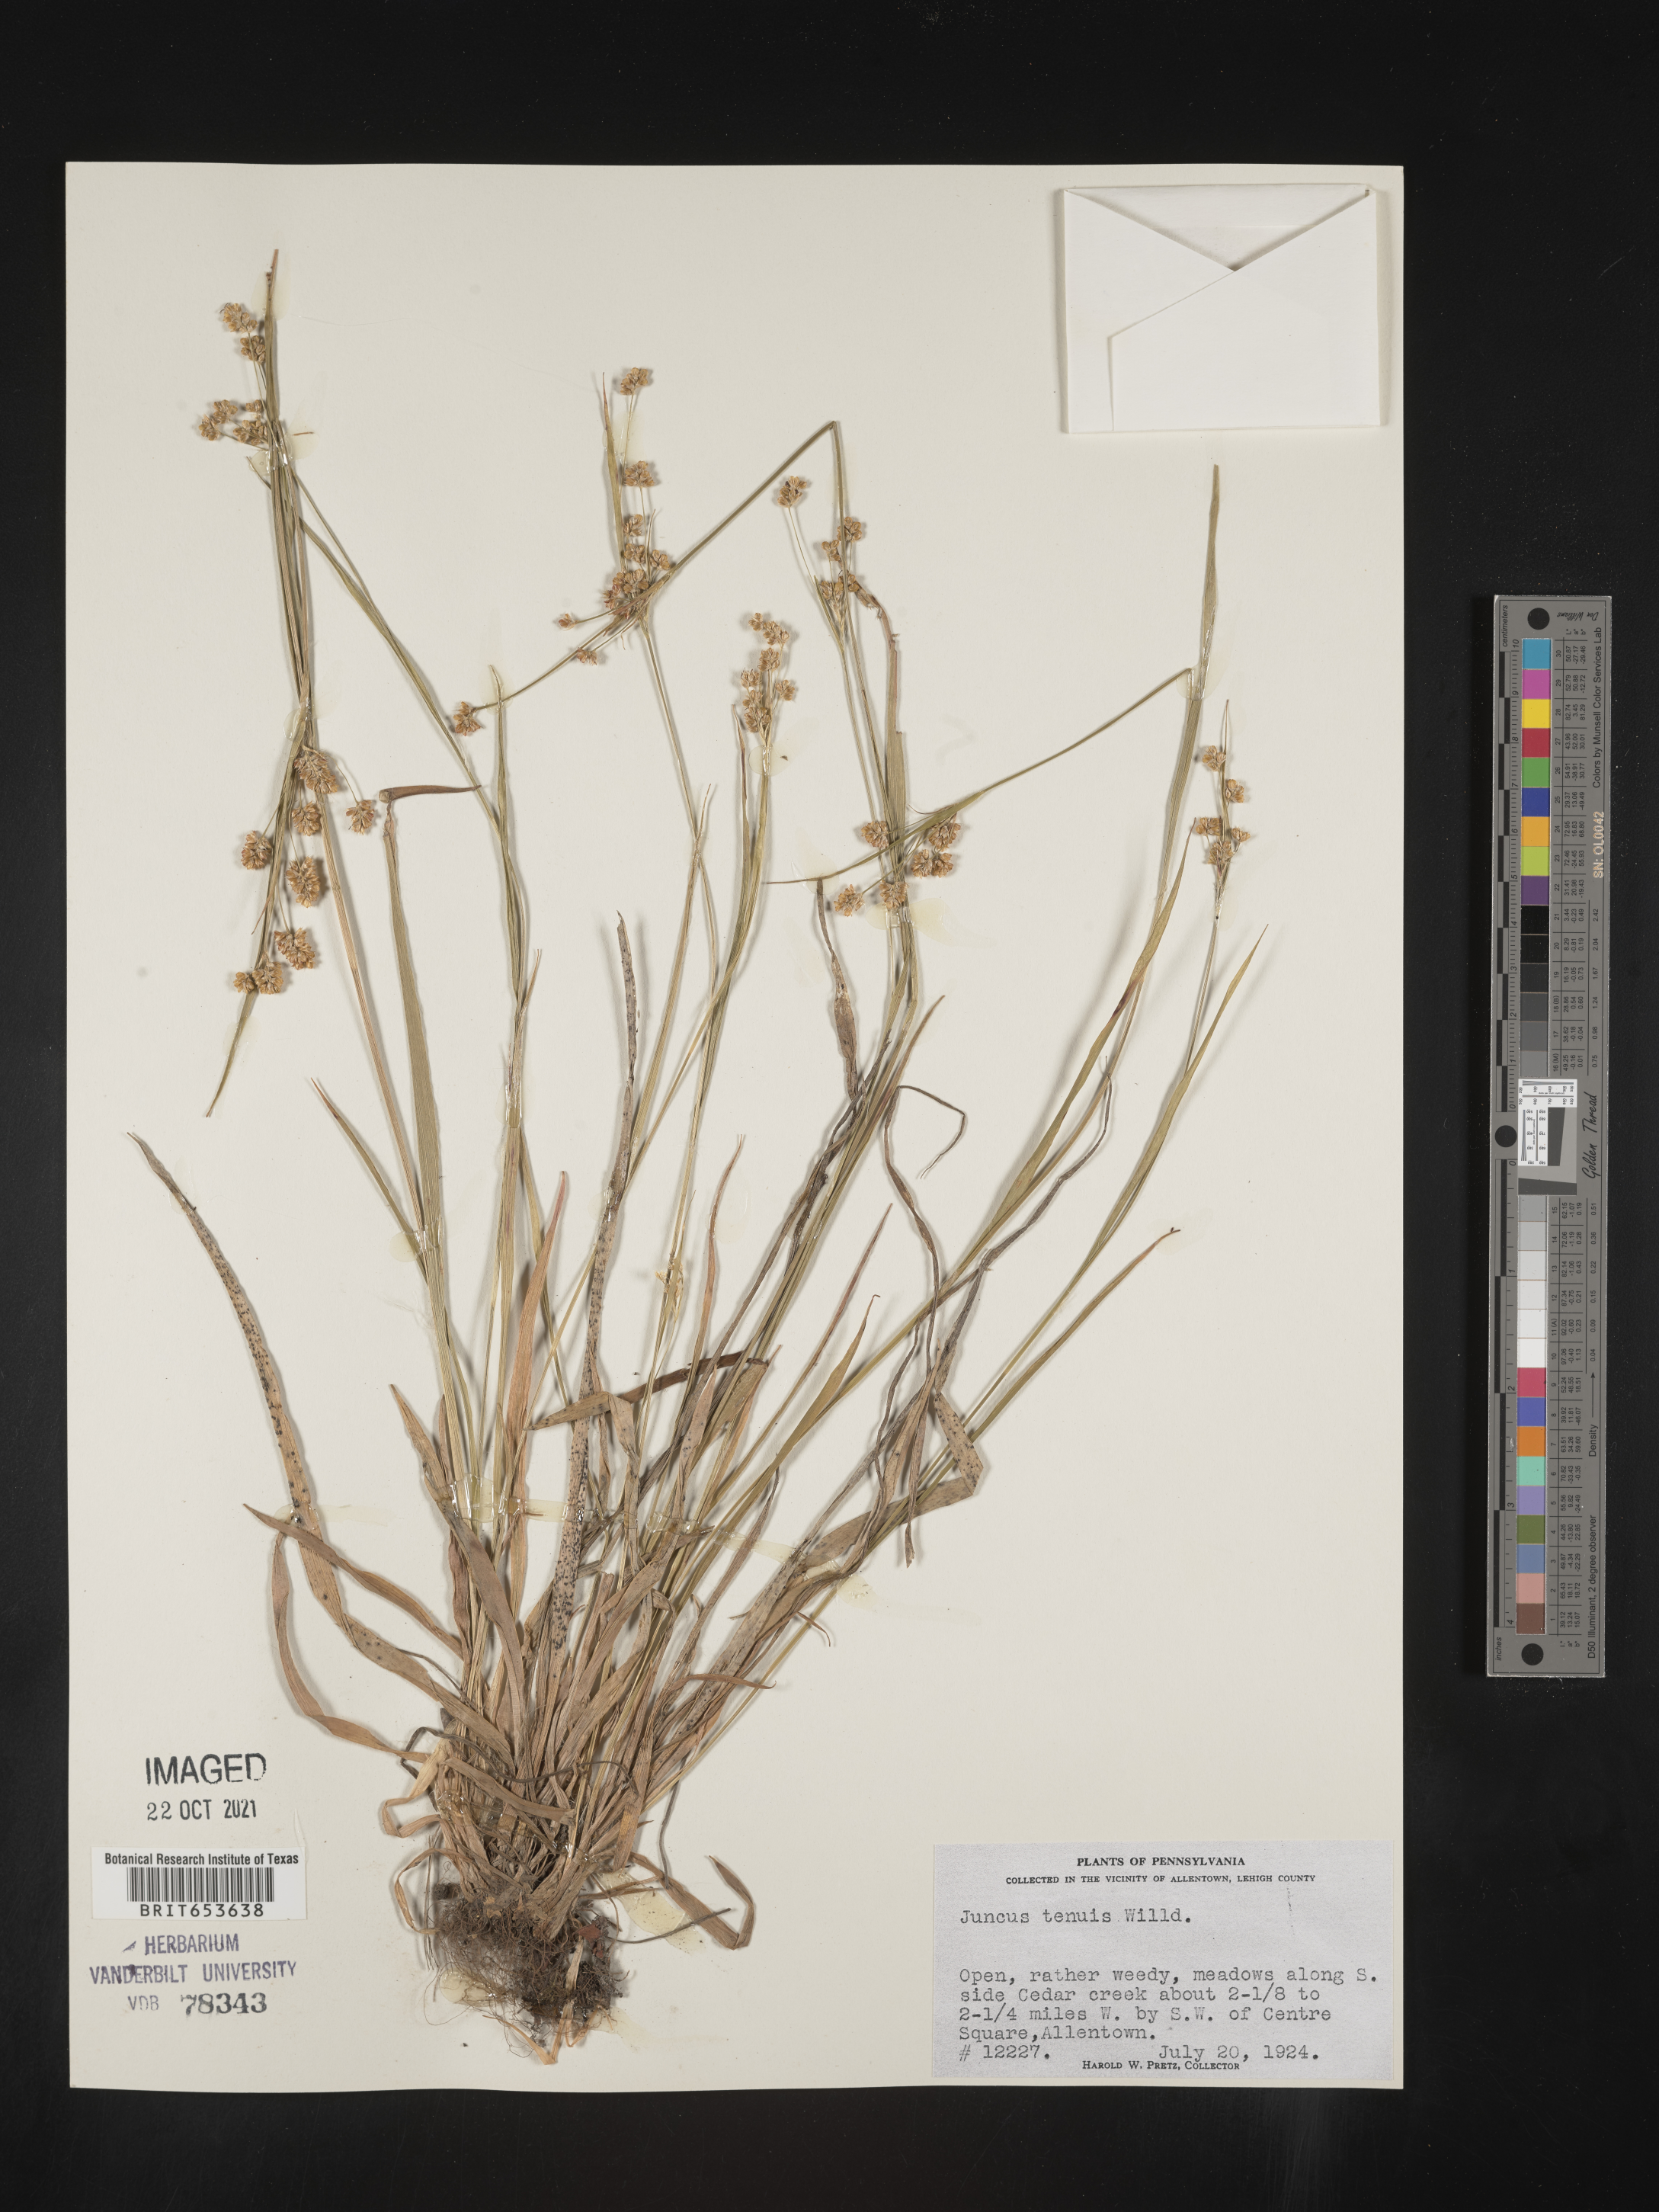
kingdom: Plantae
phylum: Tracheophyta
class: Liliopsida
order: Poales
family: Juncaceae
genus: Juncus
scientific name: Juncus tenuis
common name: Slender rush
